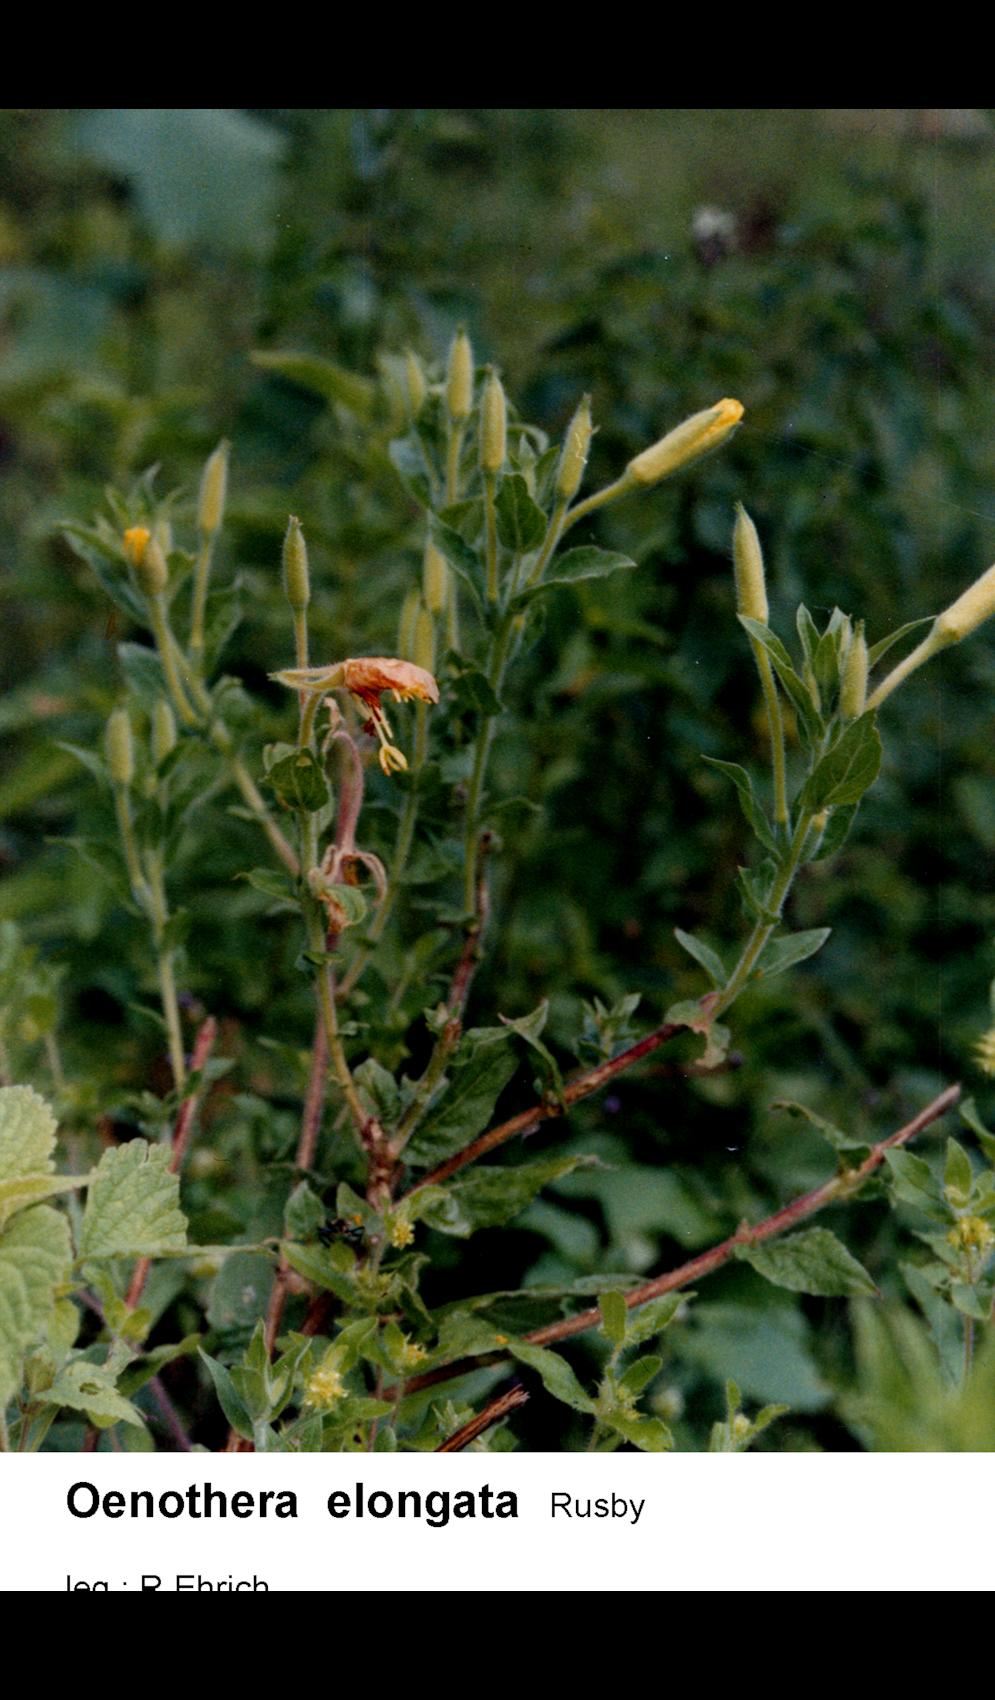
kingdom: Plantae
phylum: Tracheophyta
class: Magnoliopsida
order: Myrtales
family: Onagraceae
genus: Oenothera
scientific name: Oenothera elongata
